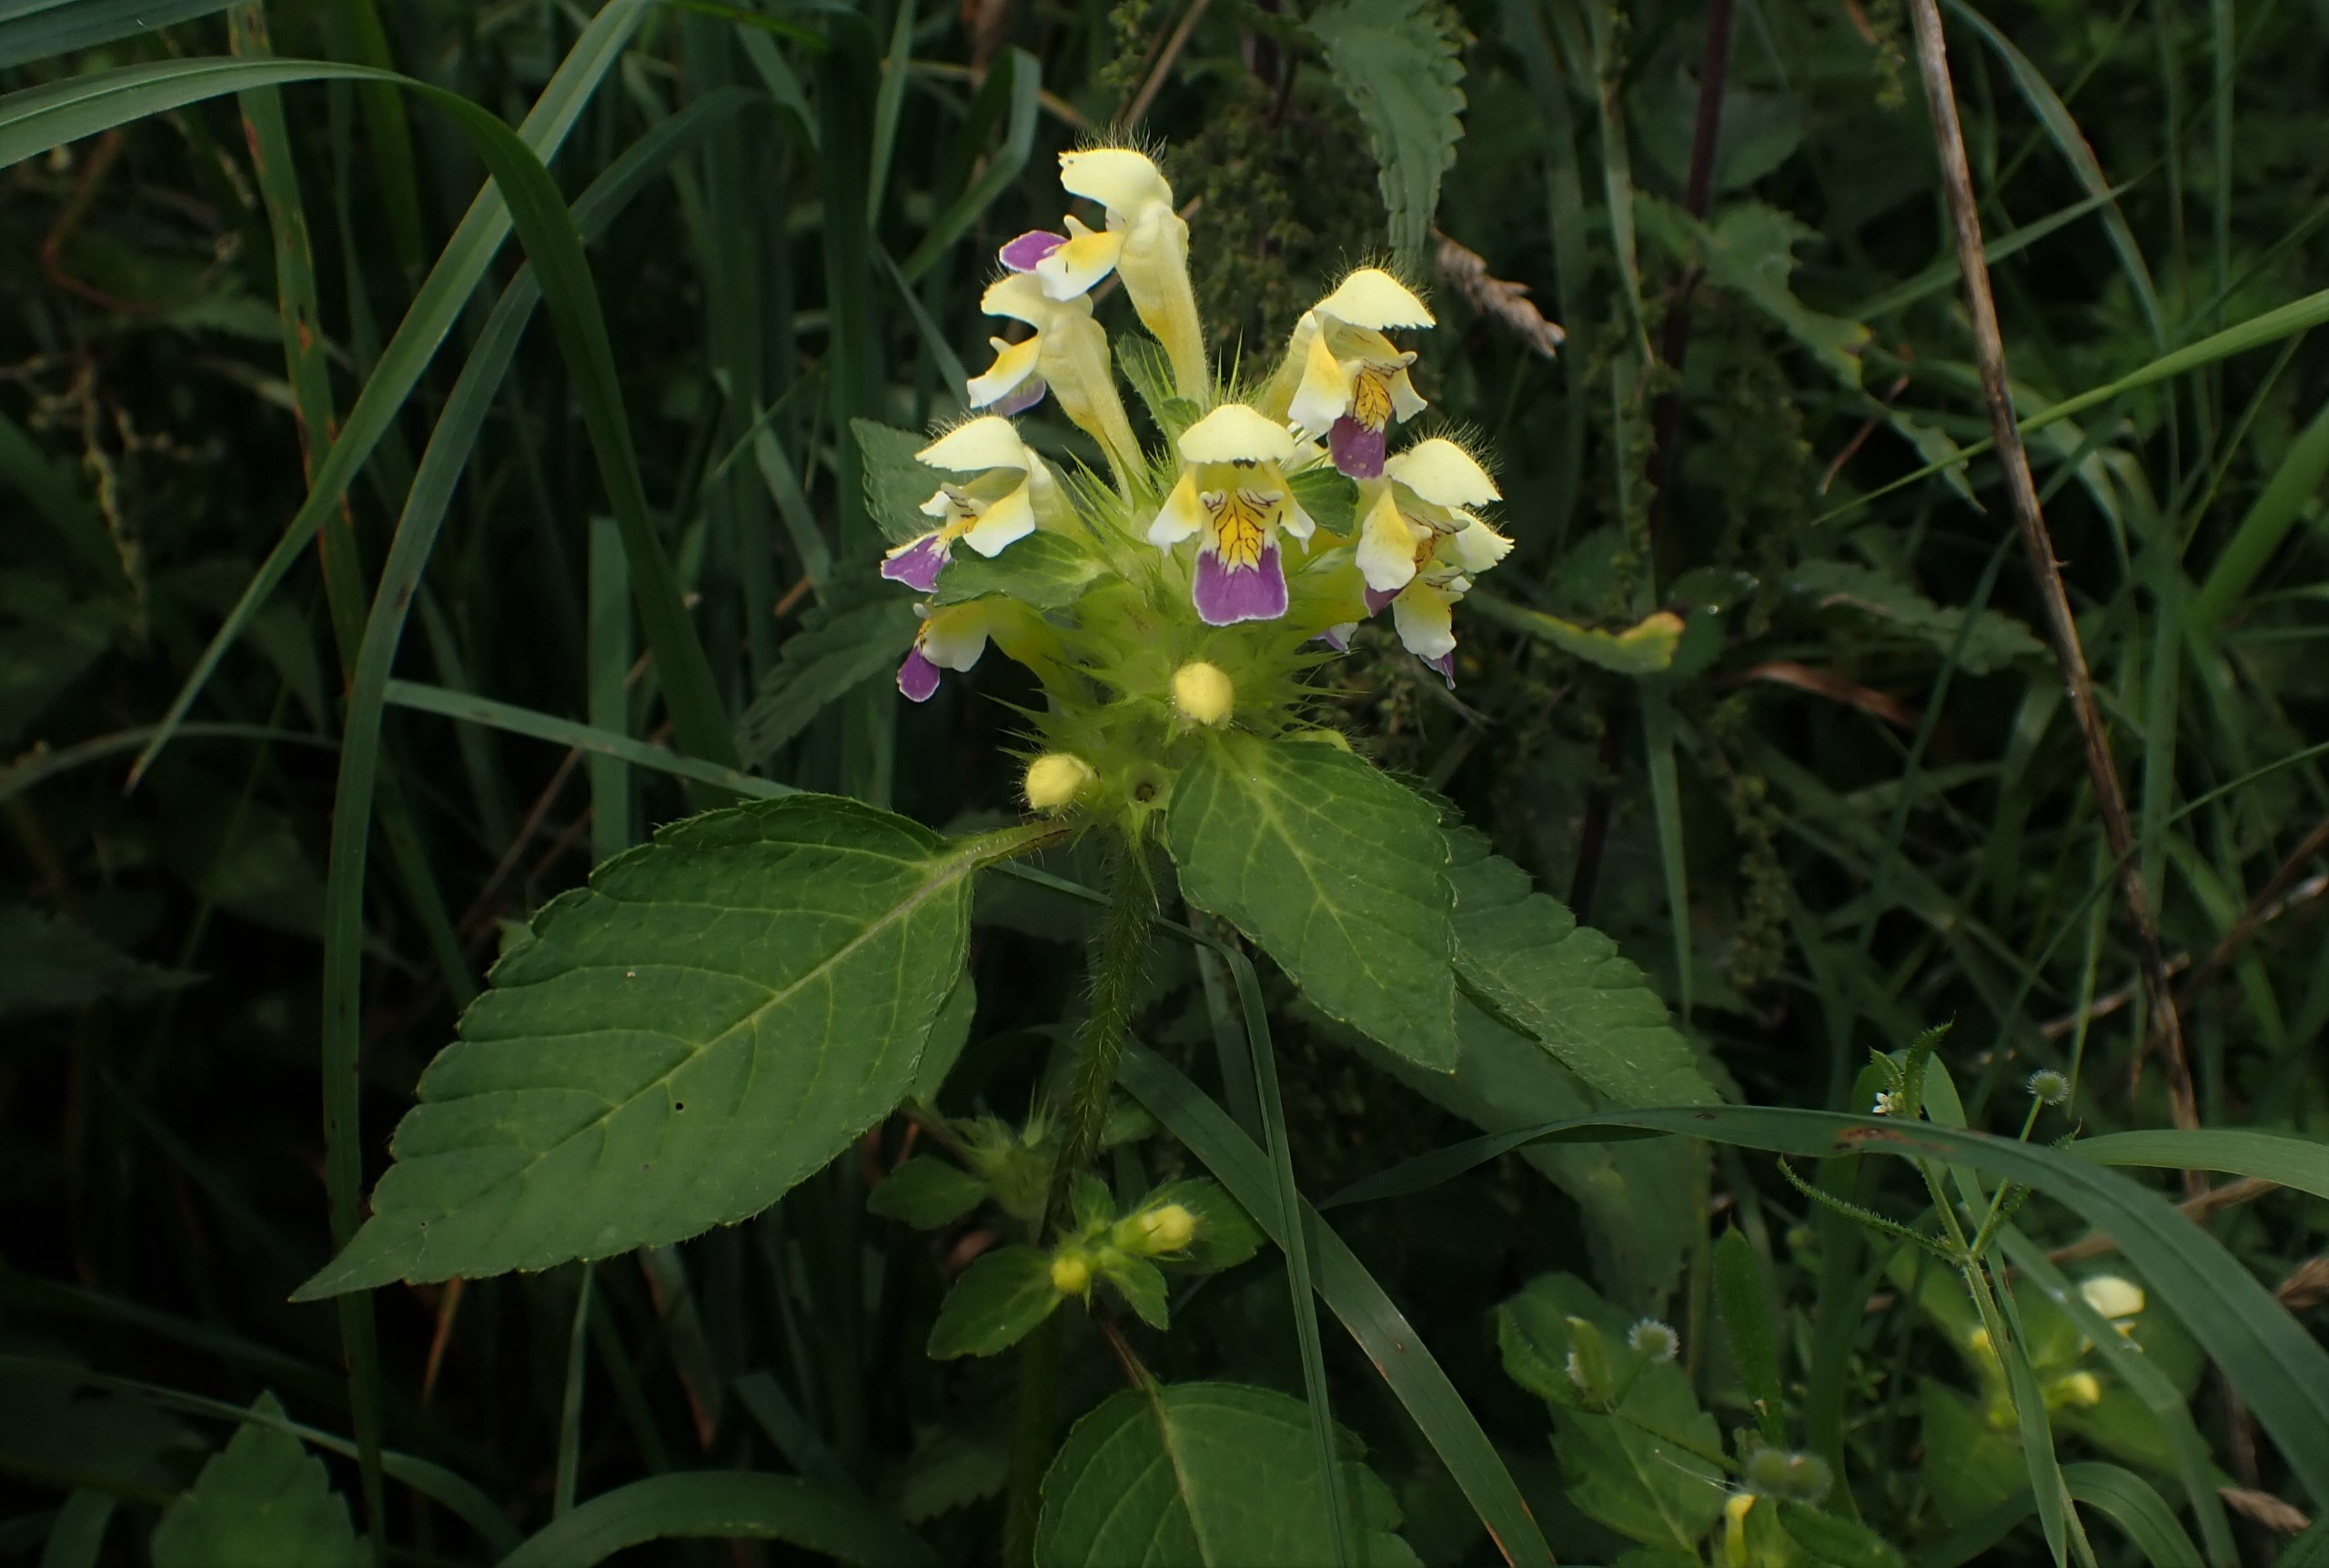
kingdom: Plantae
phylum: Tracheophyta
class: Magnoliopsida
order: Lamiales
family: Lamiaceae
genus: Galeopsis
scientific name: Galeopsis speciosa
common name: Hamp-hanekro
